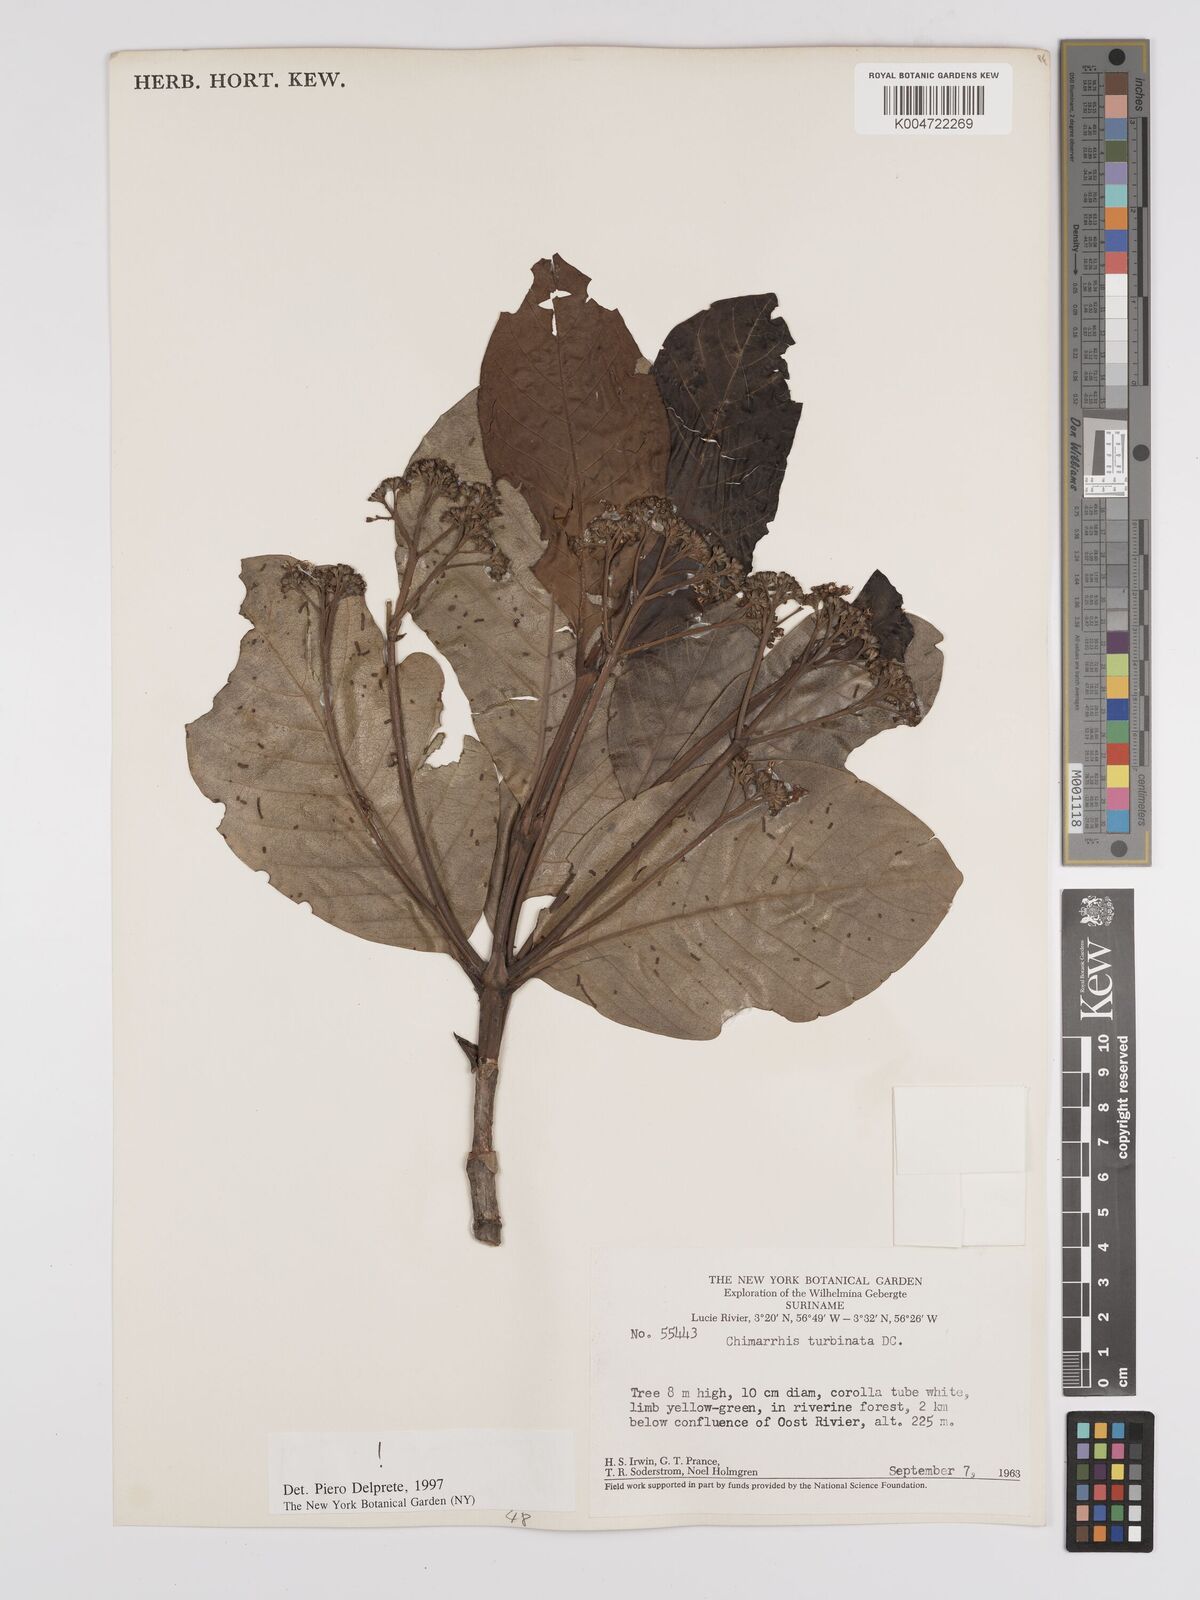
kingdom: Plantae
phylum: Tracheophyta
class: Magnoliopsida
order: Gentianales
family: Rubiaceae
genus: Chimarrhis
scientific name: Chimarrhis turbinata
